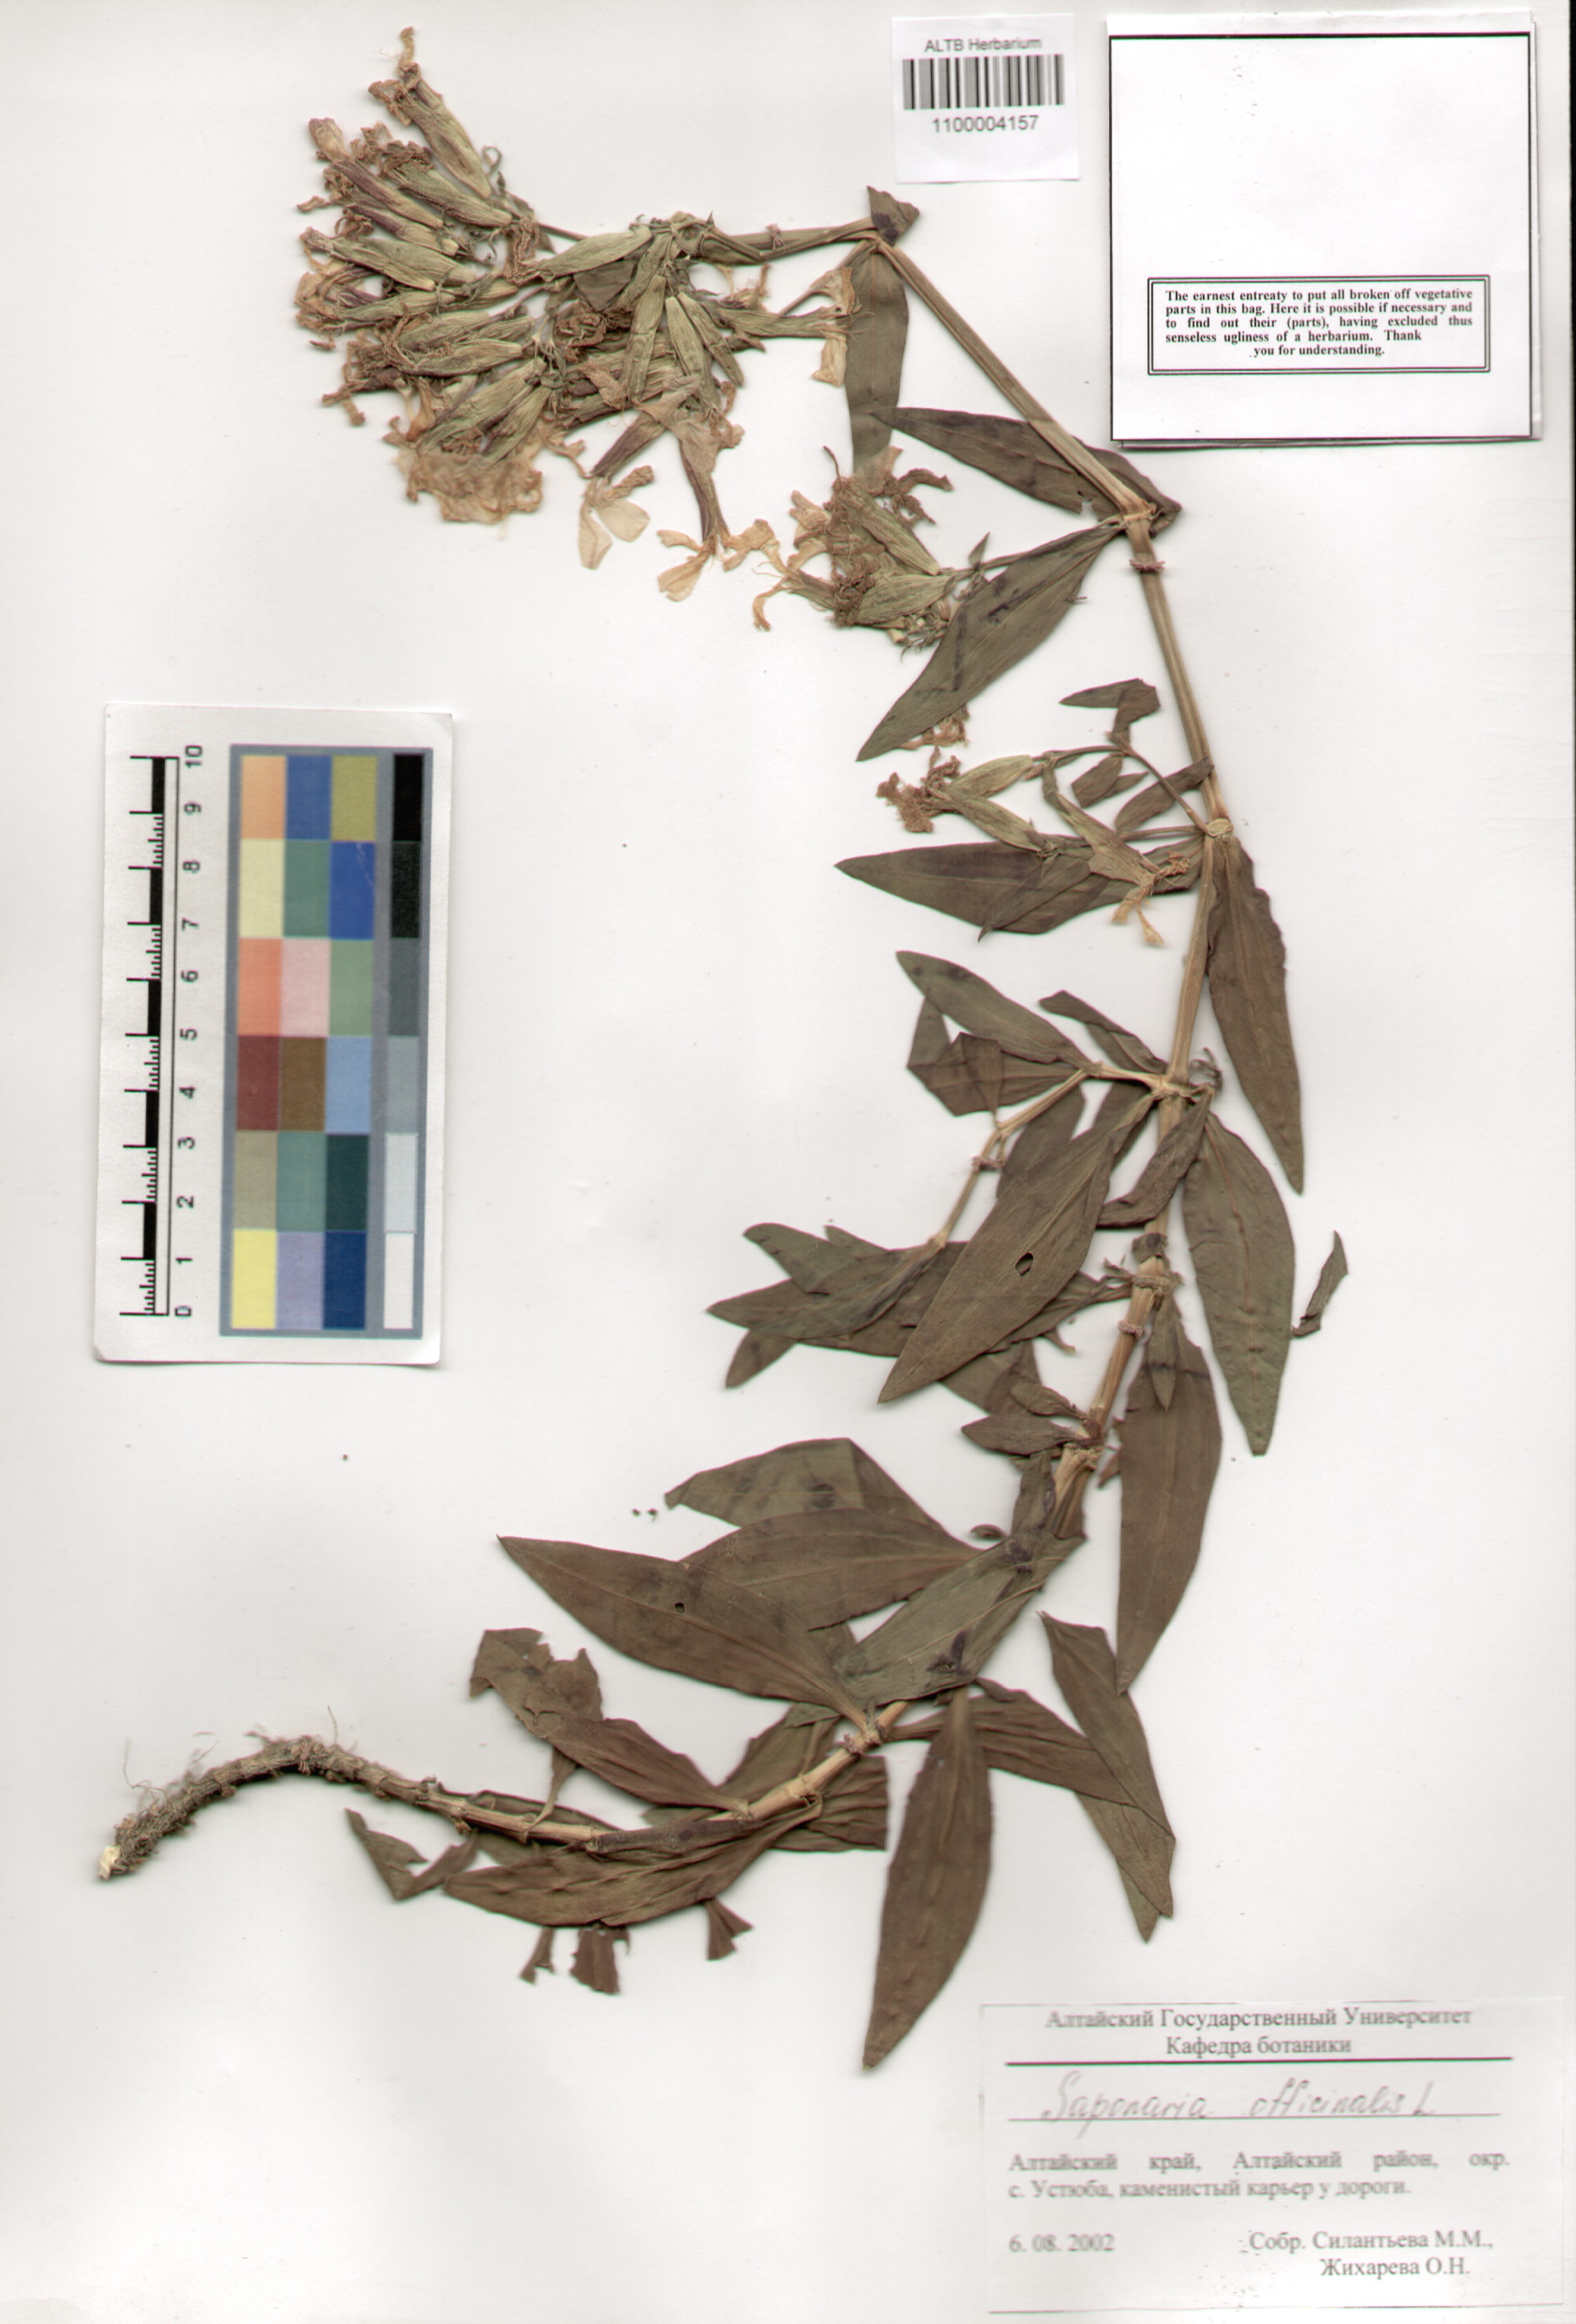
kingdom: Plantae
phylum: Tracheophyta
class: Magnoliopsida
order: Caryophyllales
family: Caryophyllaceae
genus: Saponaria
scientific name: Saponaria officinalis
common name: Soapwort
